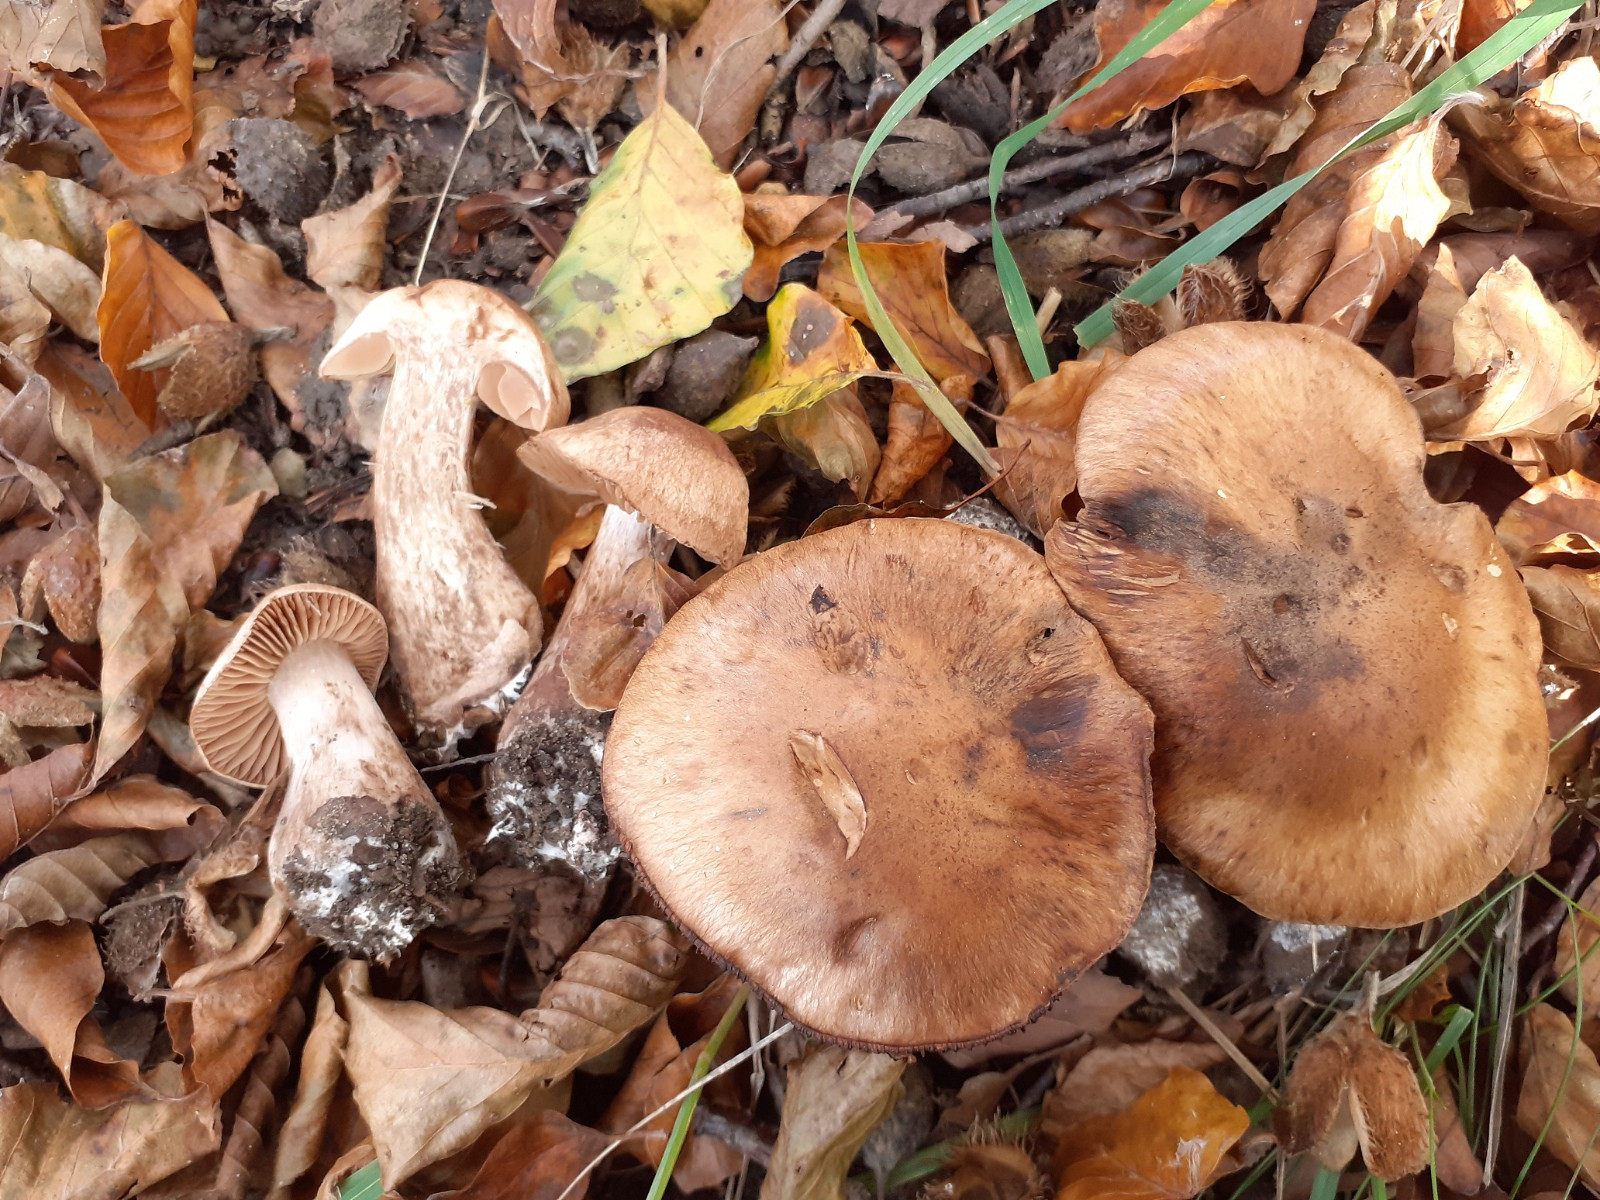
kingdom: Fungi
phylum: Basidiomycota
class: Agaricomycetes
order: Agaricales
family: Cortinariaceae
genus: Cortinarius
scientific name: Cortinarius sociatus
